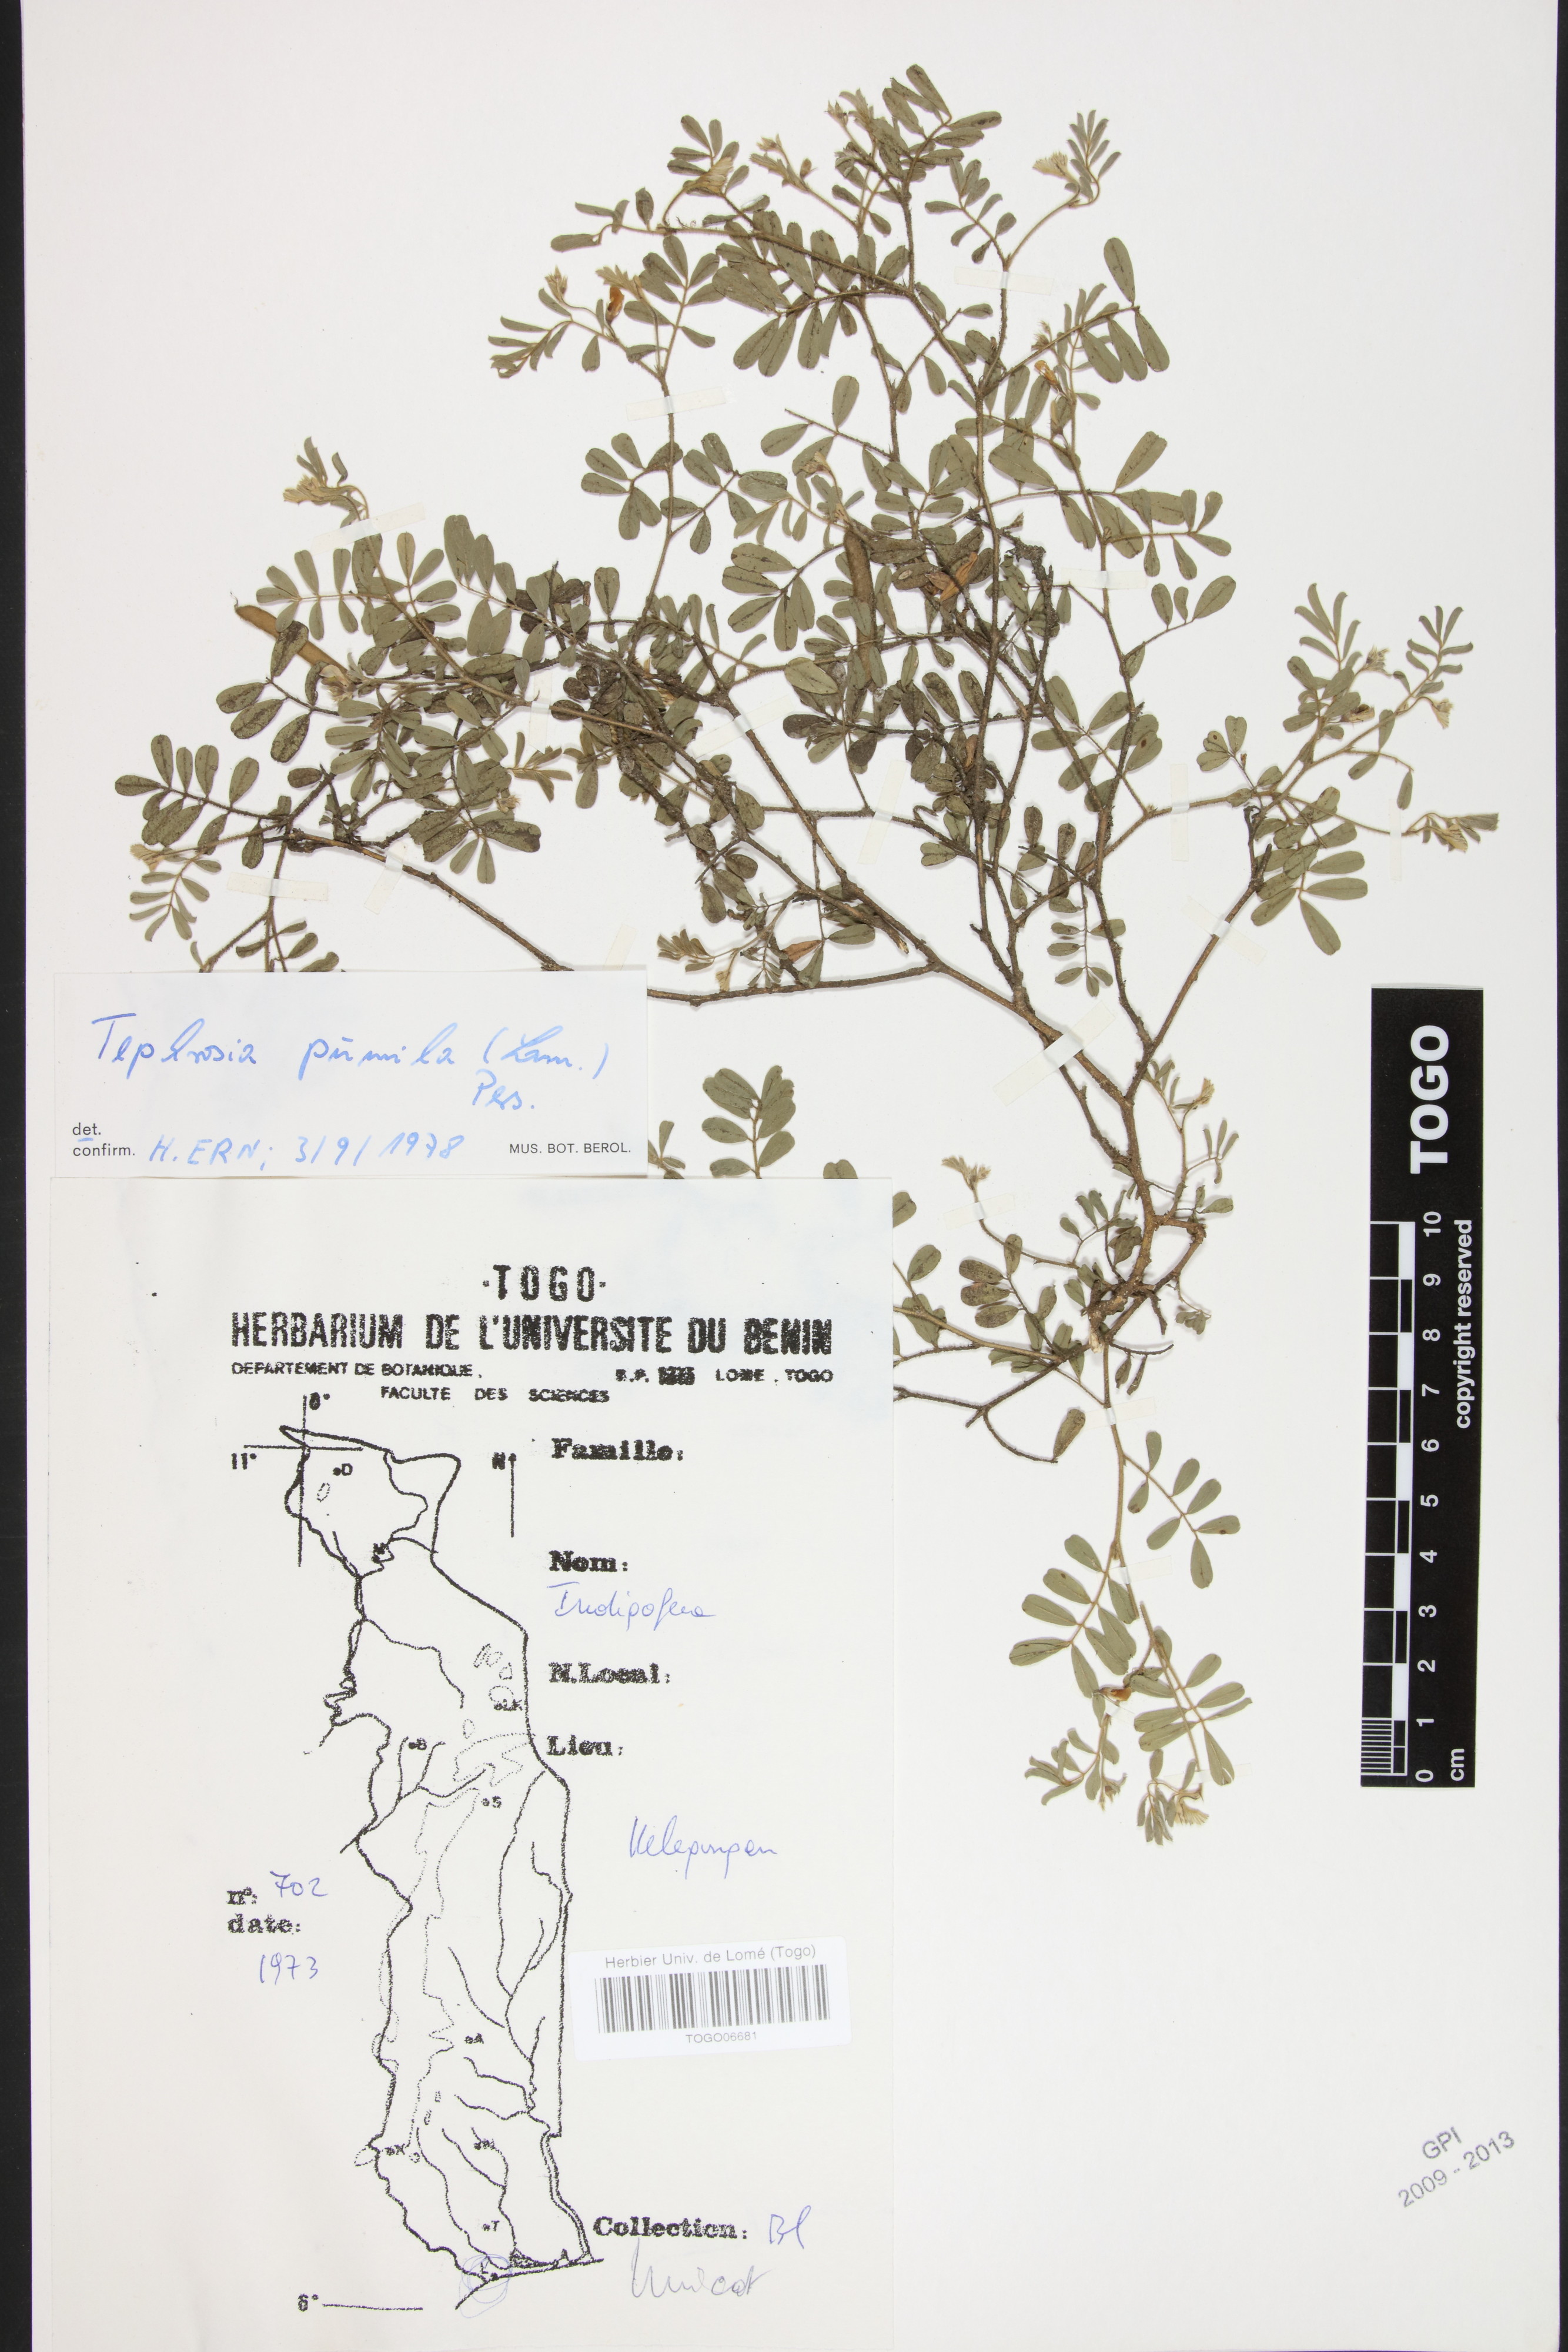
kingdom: Plantae
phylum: Tracheophyta
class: Magnoliopsida
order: Fabales
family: Fabaceae
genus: Tephrosia
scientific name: Tephrosia pumila
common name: Indigo sauvage
